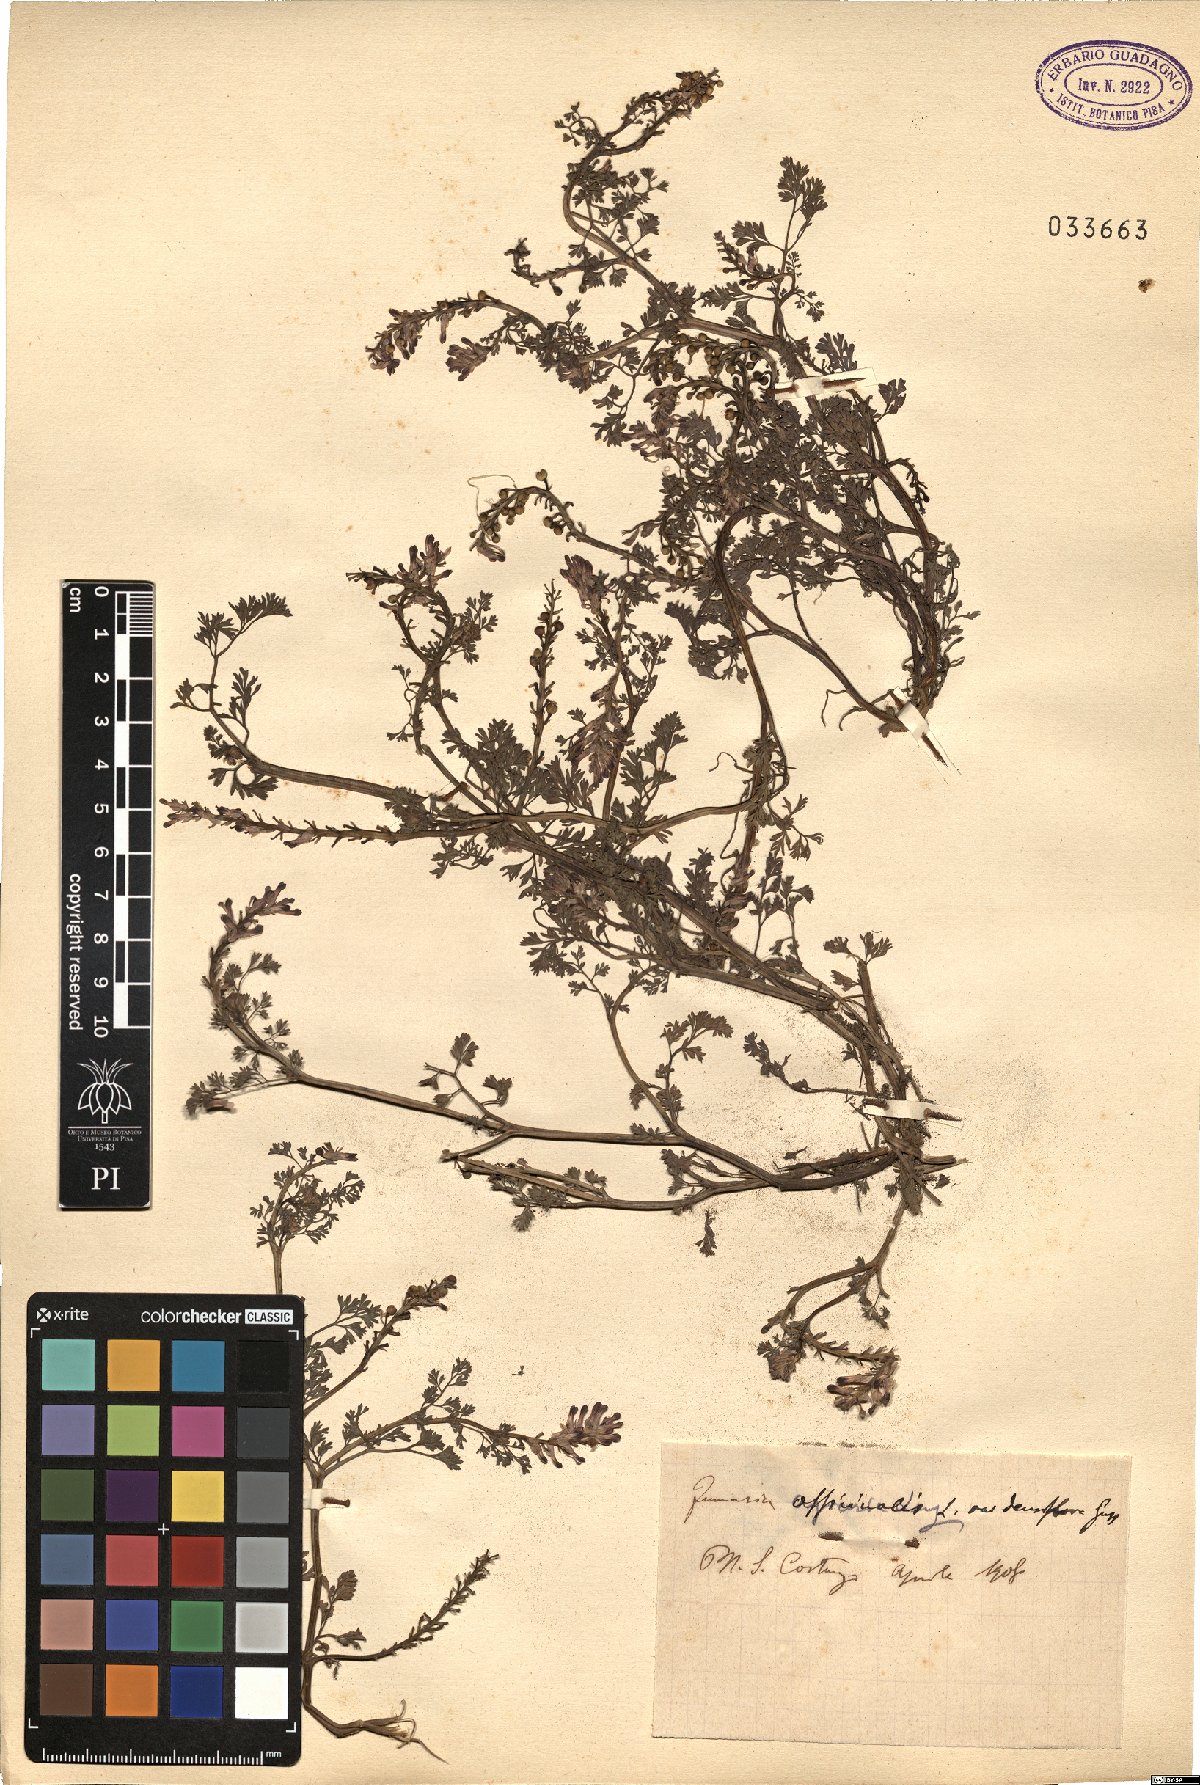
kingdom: Plantae
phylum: Tracheophyta
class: Magnoliopsida
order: Ranunculales
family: Papaveraceae
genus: Fumaria
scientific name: Fumaria densiflora
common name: Dense-flowered fumitory
